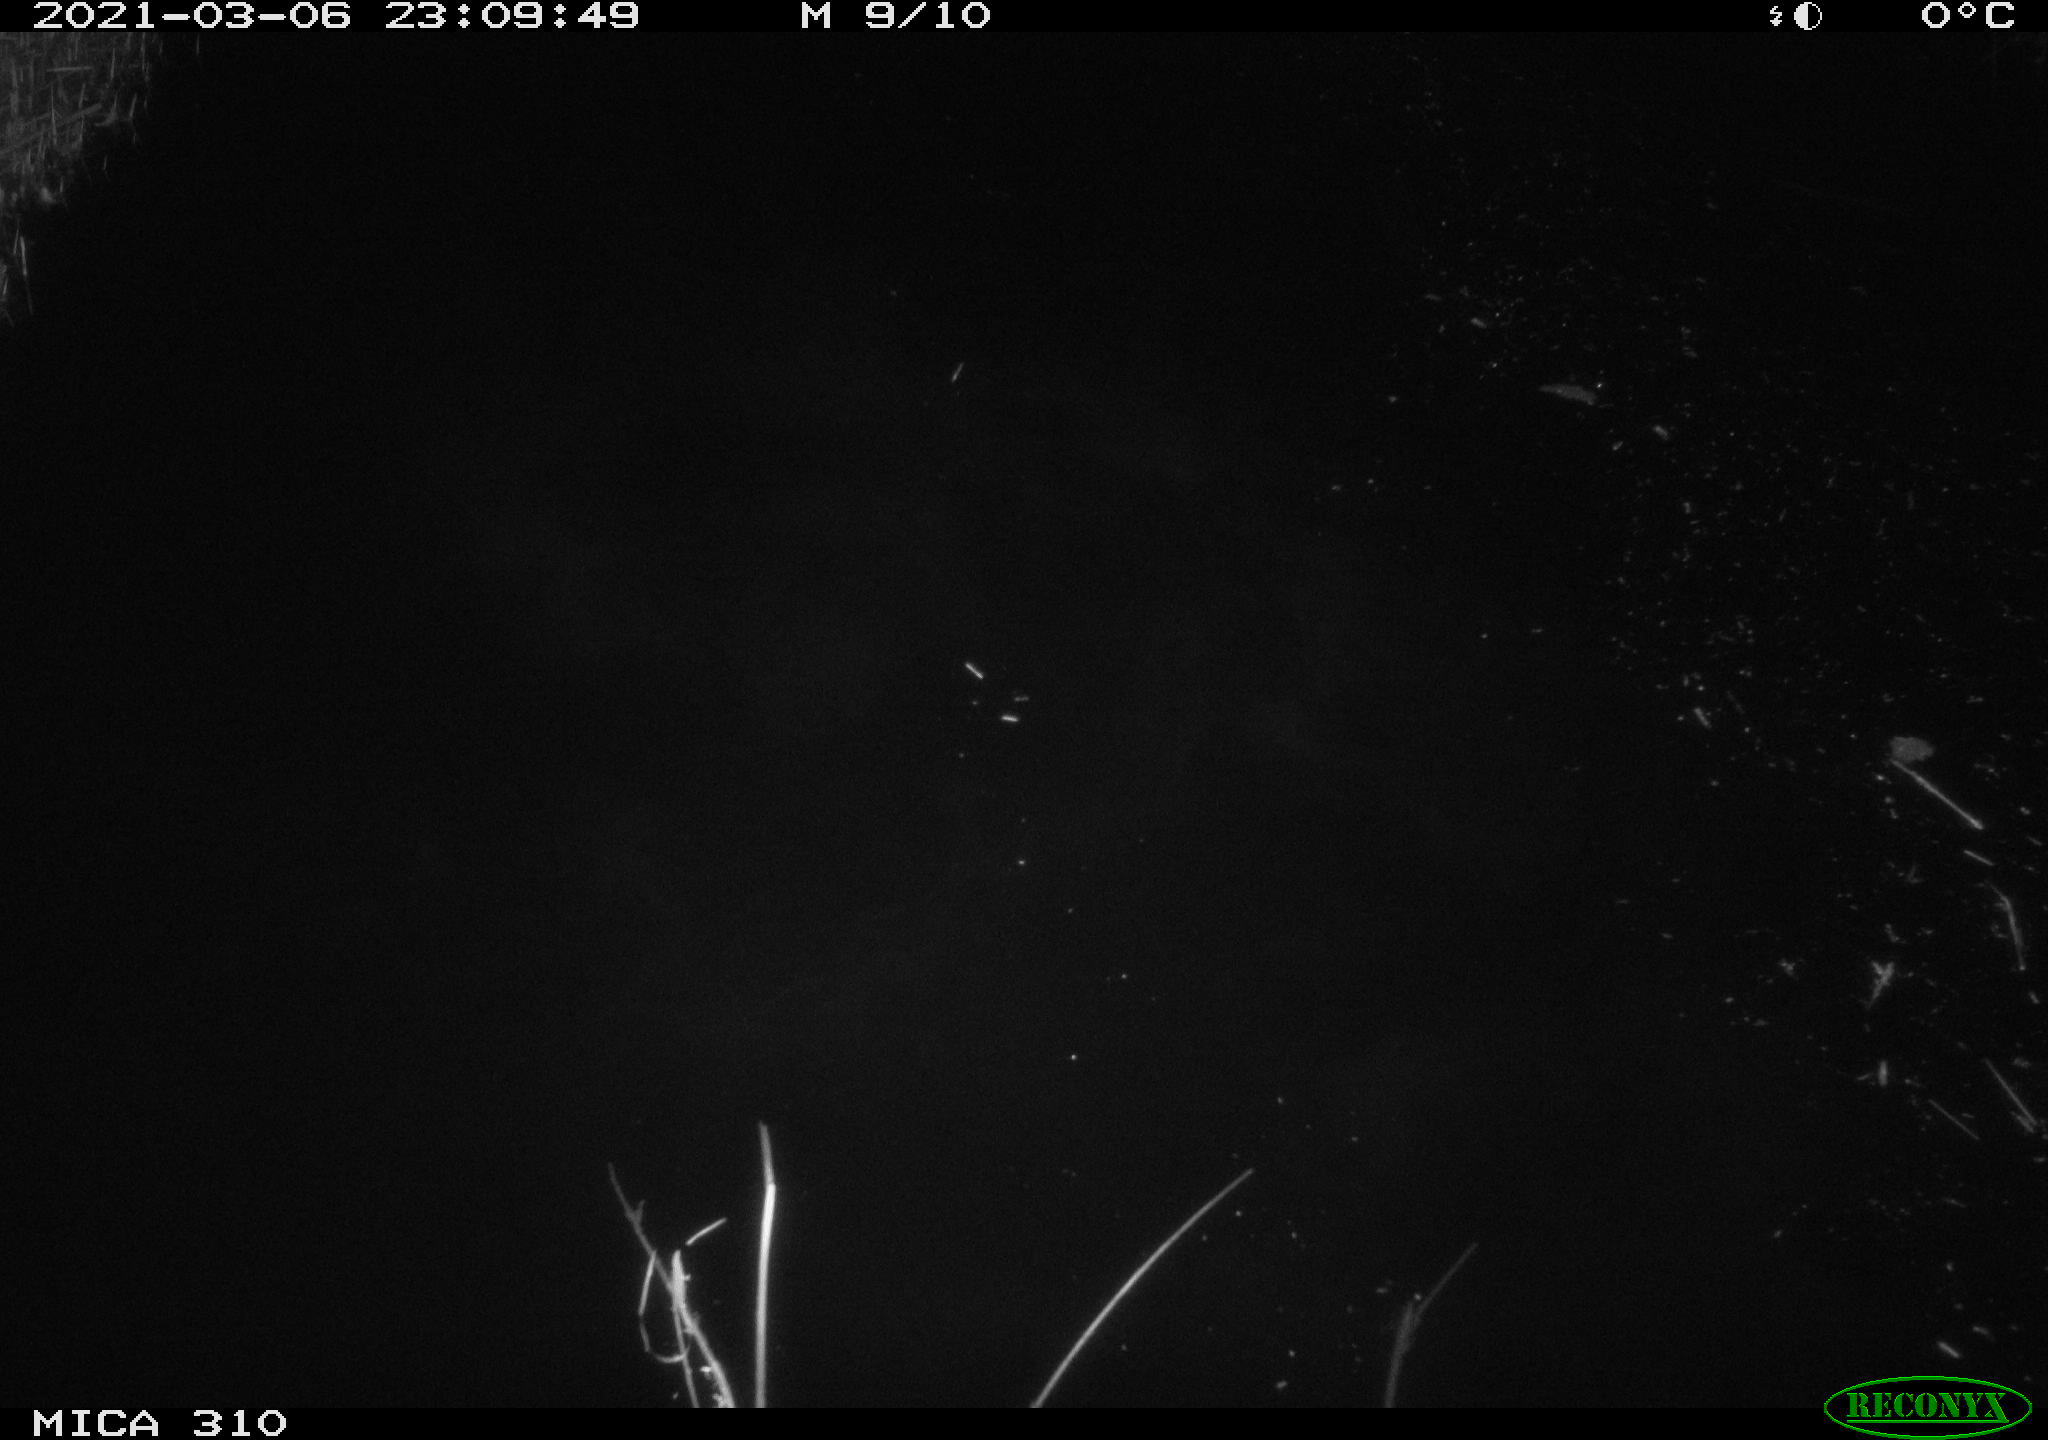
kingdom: Animalia
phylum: Chordata
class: Aves
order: Anseriformes
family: Anatidae
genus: Anas
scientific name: Anas platyrhynchos
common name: Mallard
